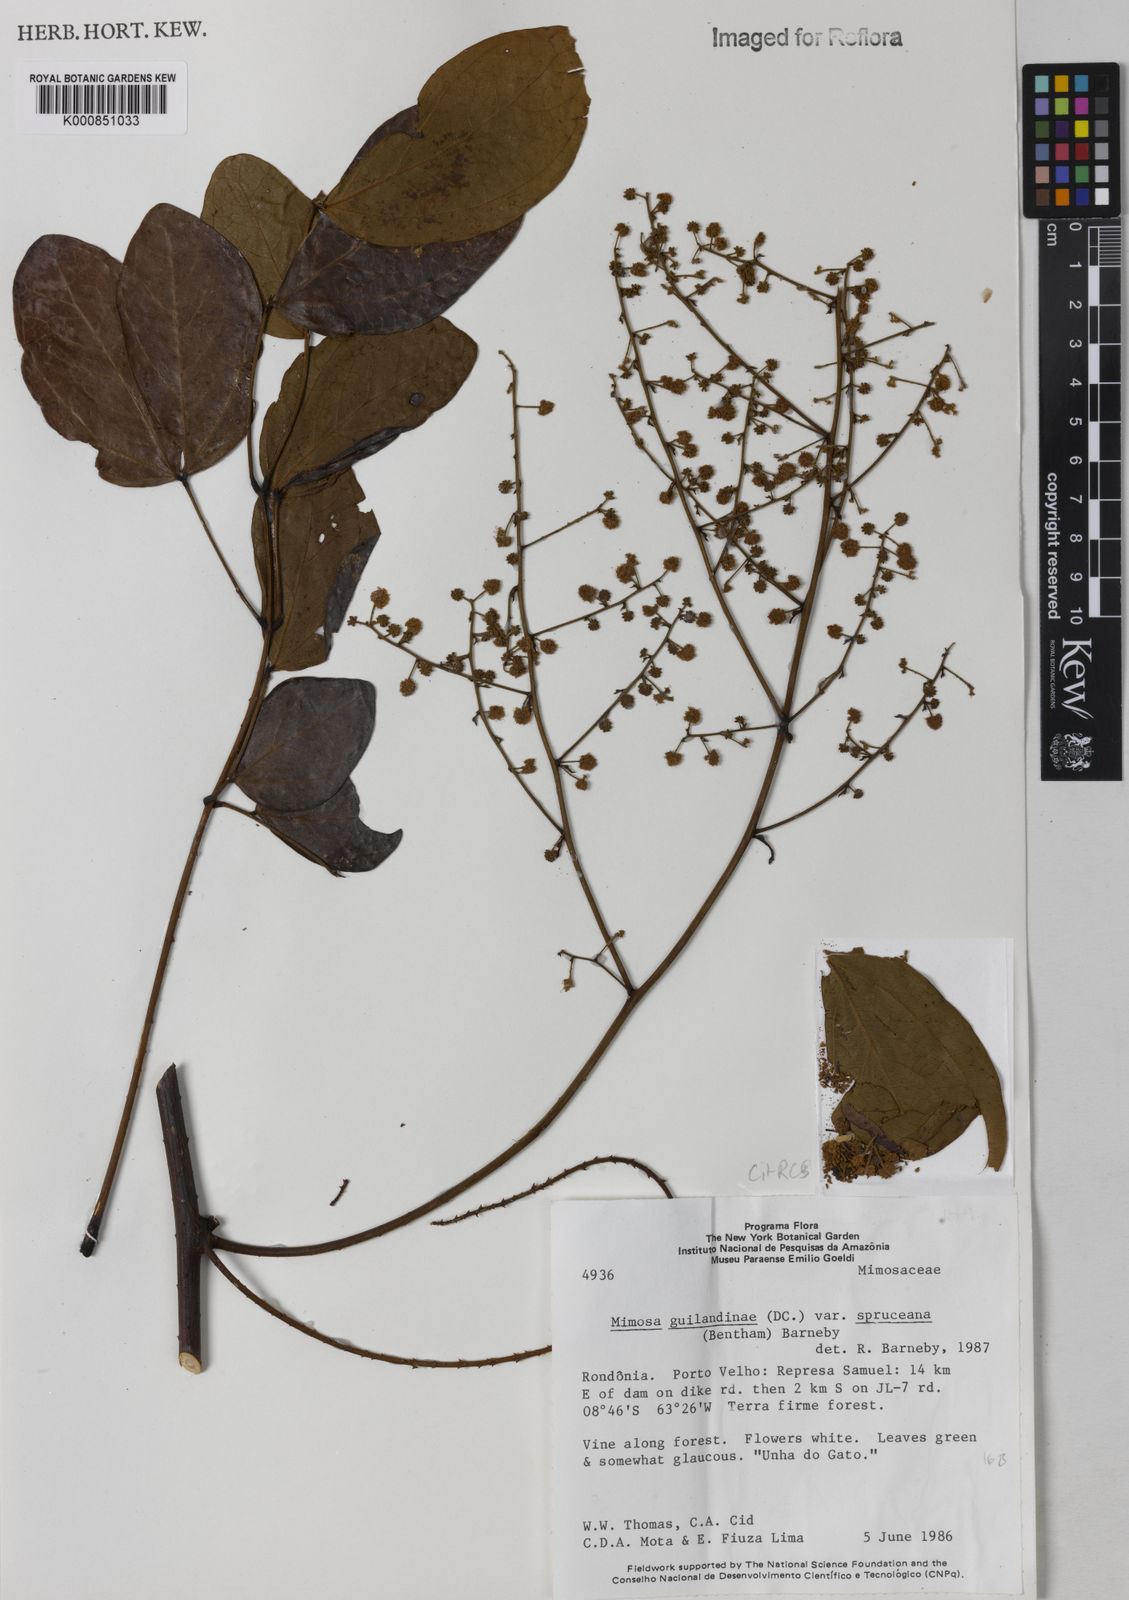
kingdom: Plantae
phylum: Tracheophyta
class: Magnoliopsida
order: Fabales
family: Fabaceae
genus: Mimosa
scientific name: Mimosa guilandinae
